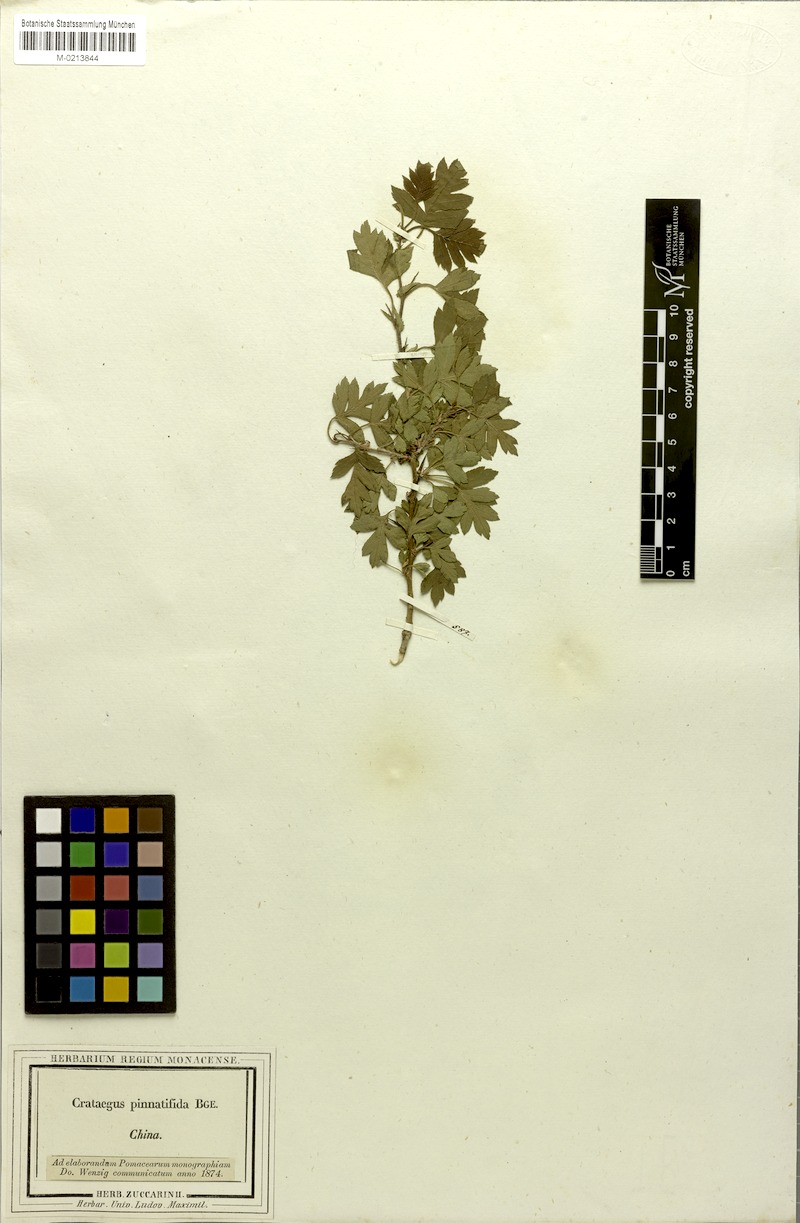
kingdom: Plantae
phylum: Tracheophyta
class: Magnoliopsida
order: Rosales
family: Rosaceae
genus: Crataegus
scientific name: Crataegus pinnatifida
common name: Chinese haw
